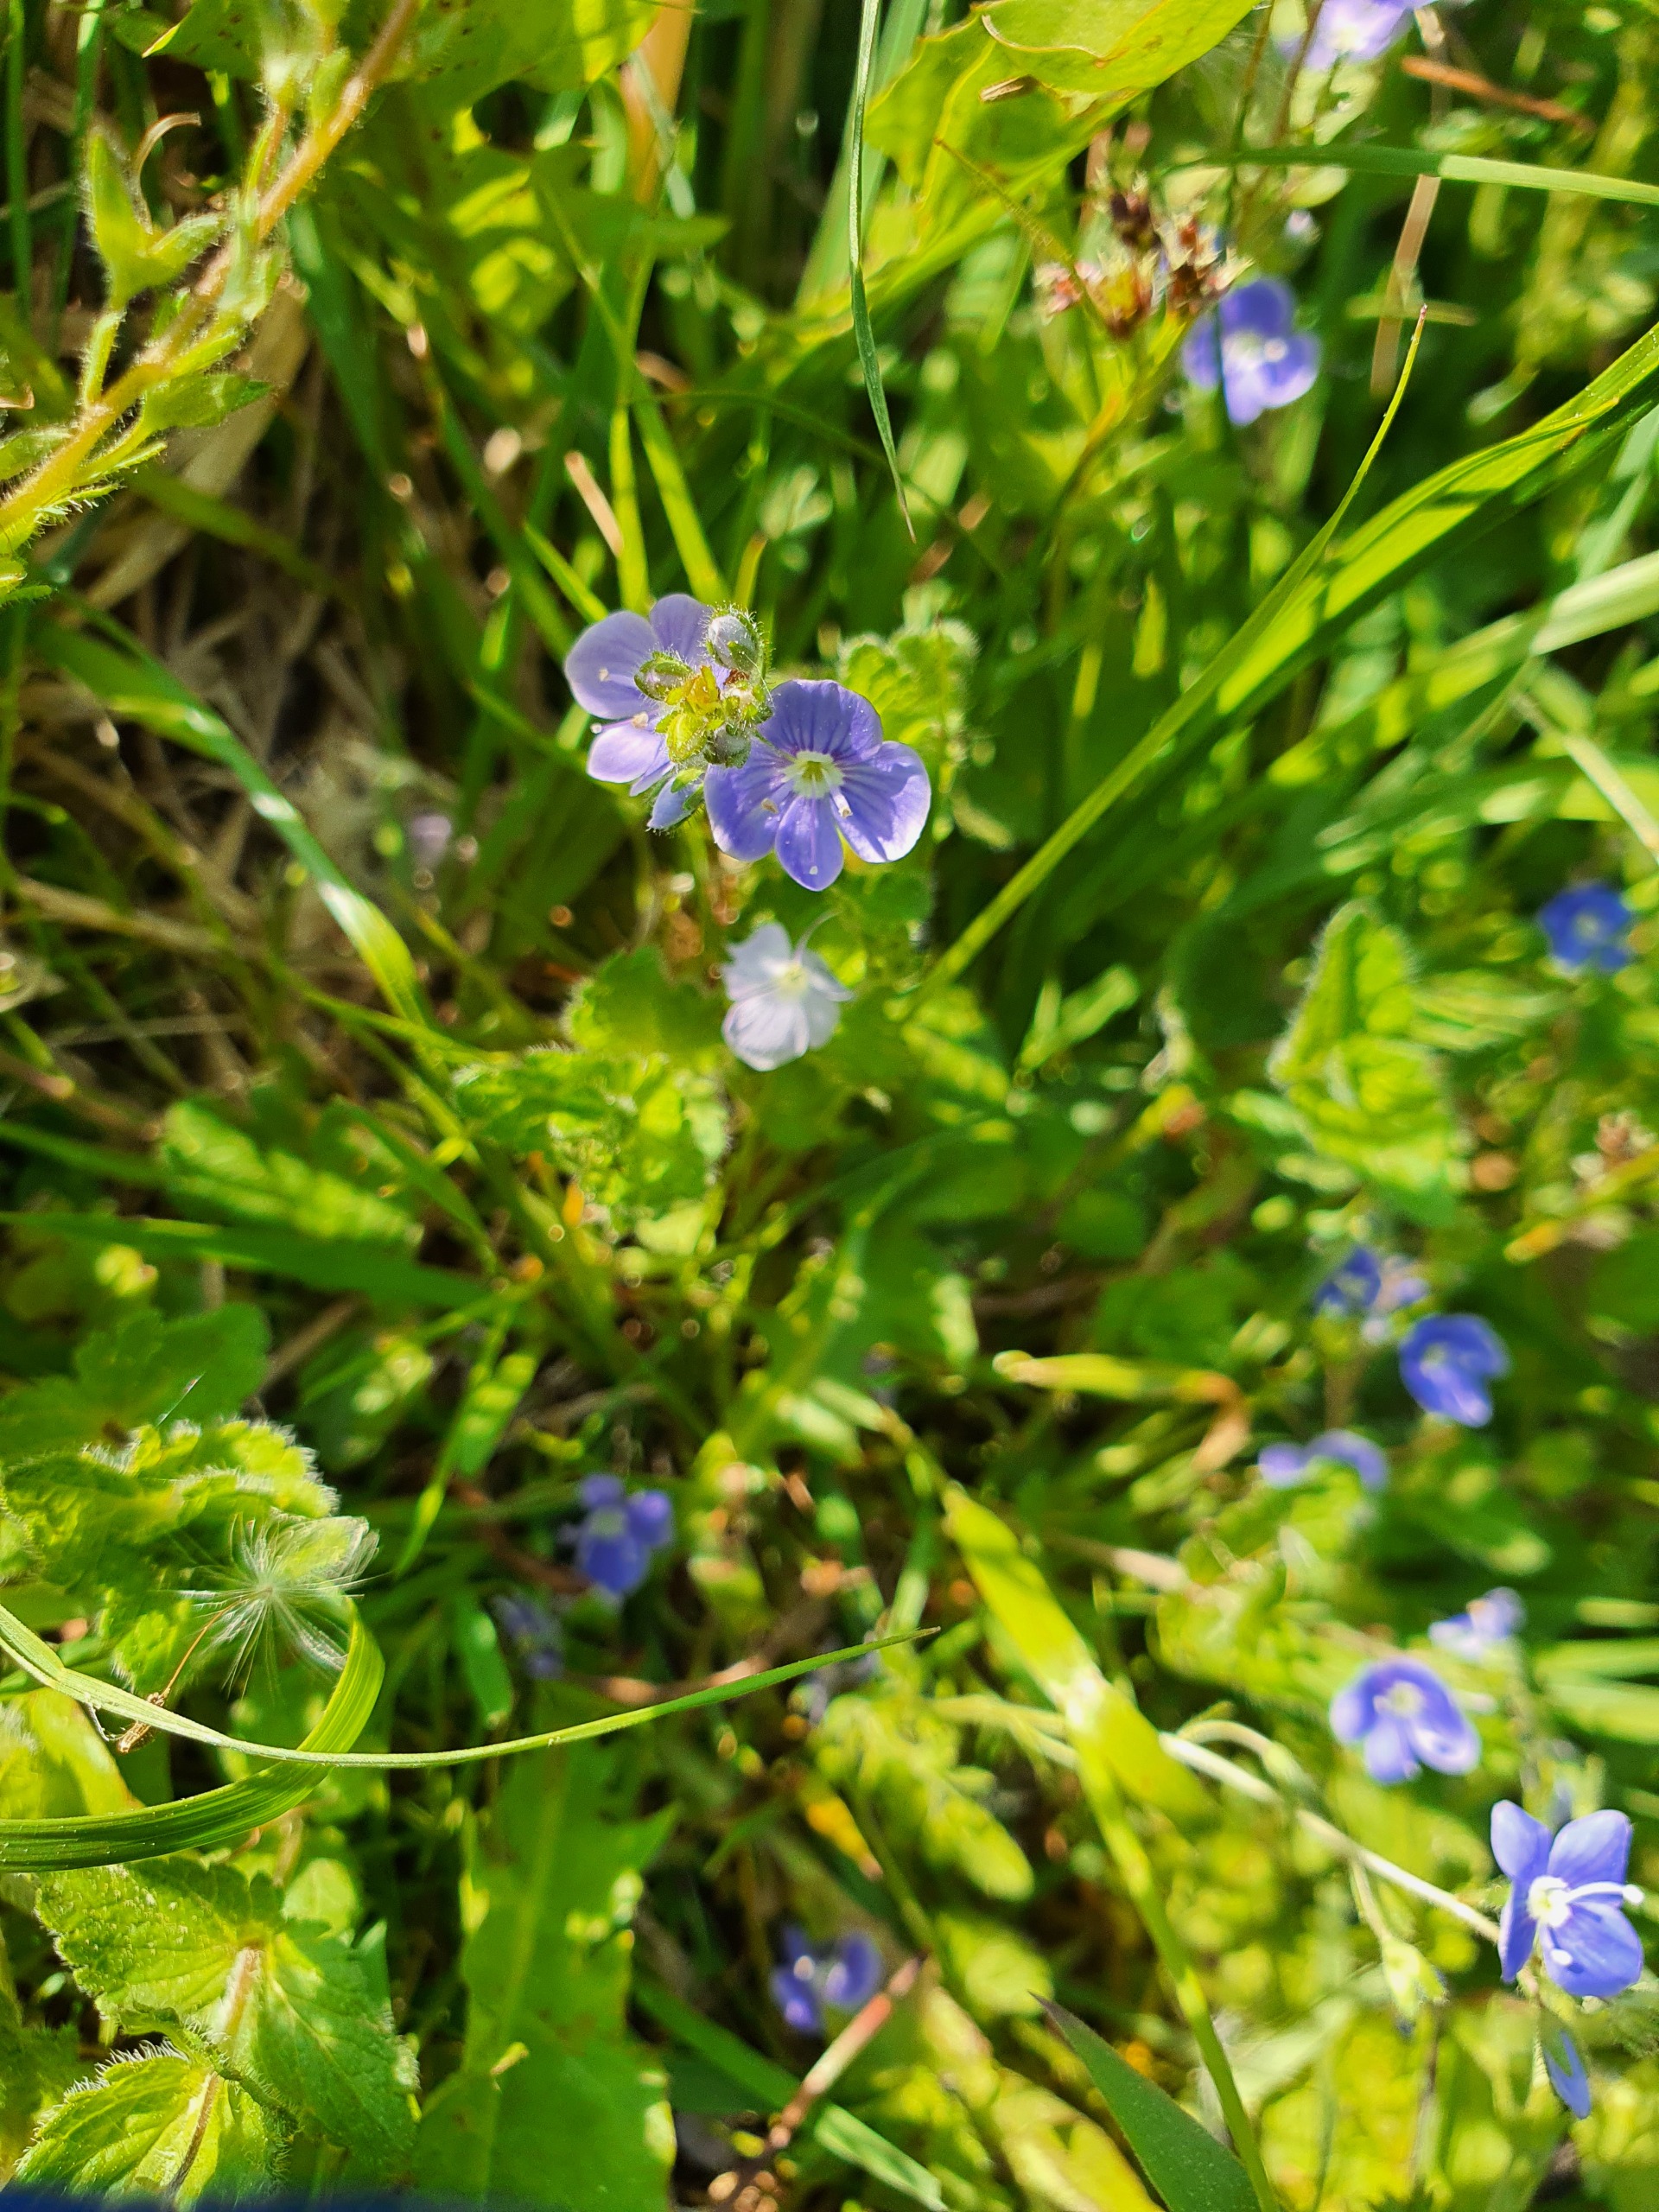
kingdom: Plantae
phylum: Tracheophyta
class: Magnoliopsida
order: Lamiales
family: Plantaginaceae
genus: Veronica
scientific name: Veronica chamaedrys
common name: Tveskægget ærenpris
